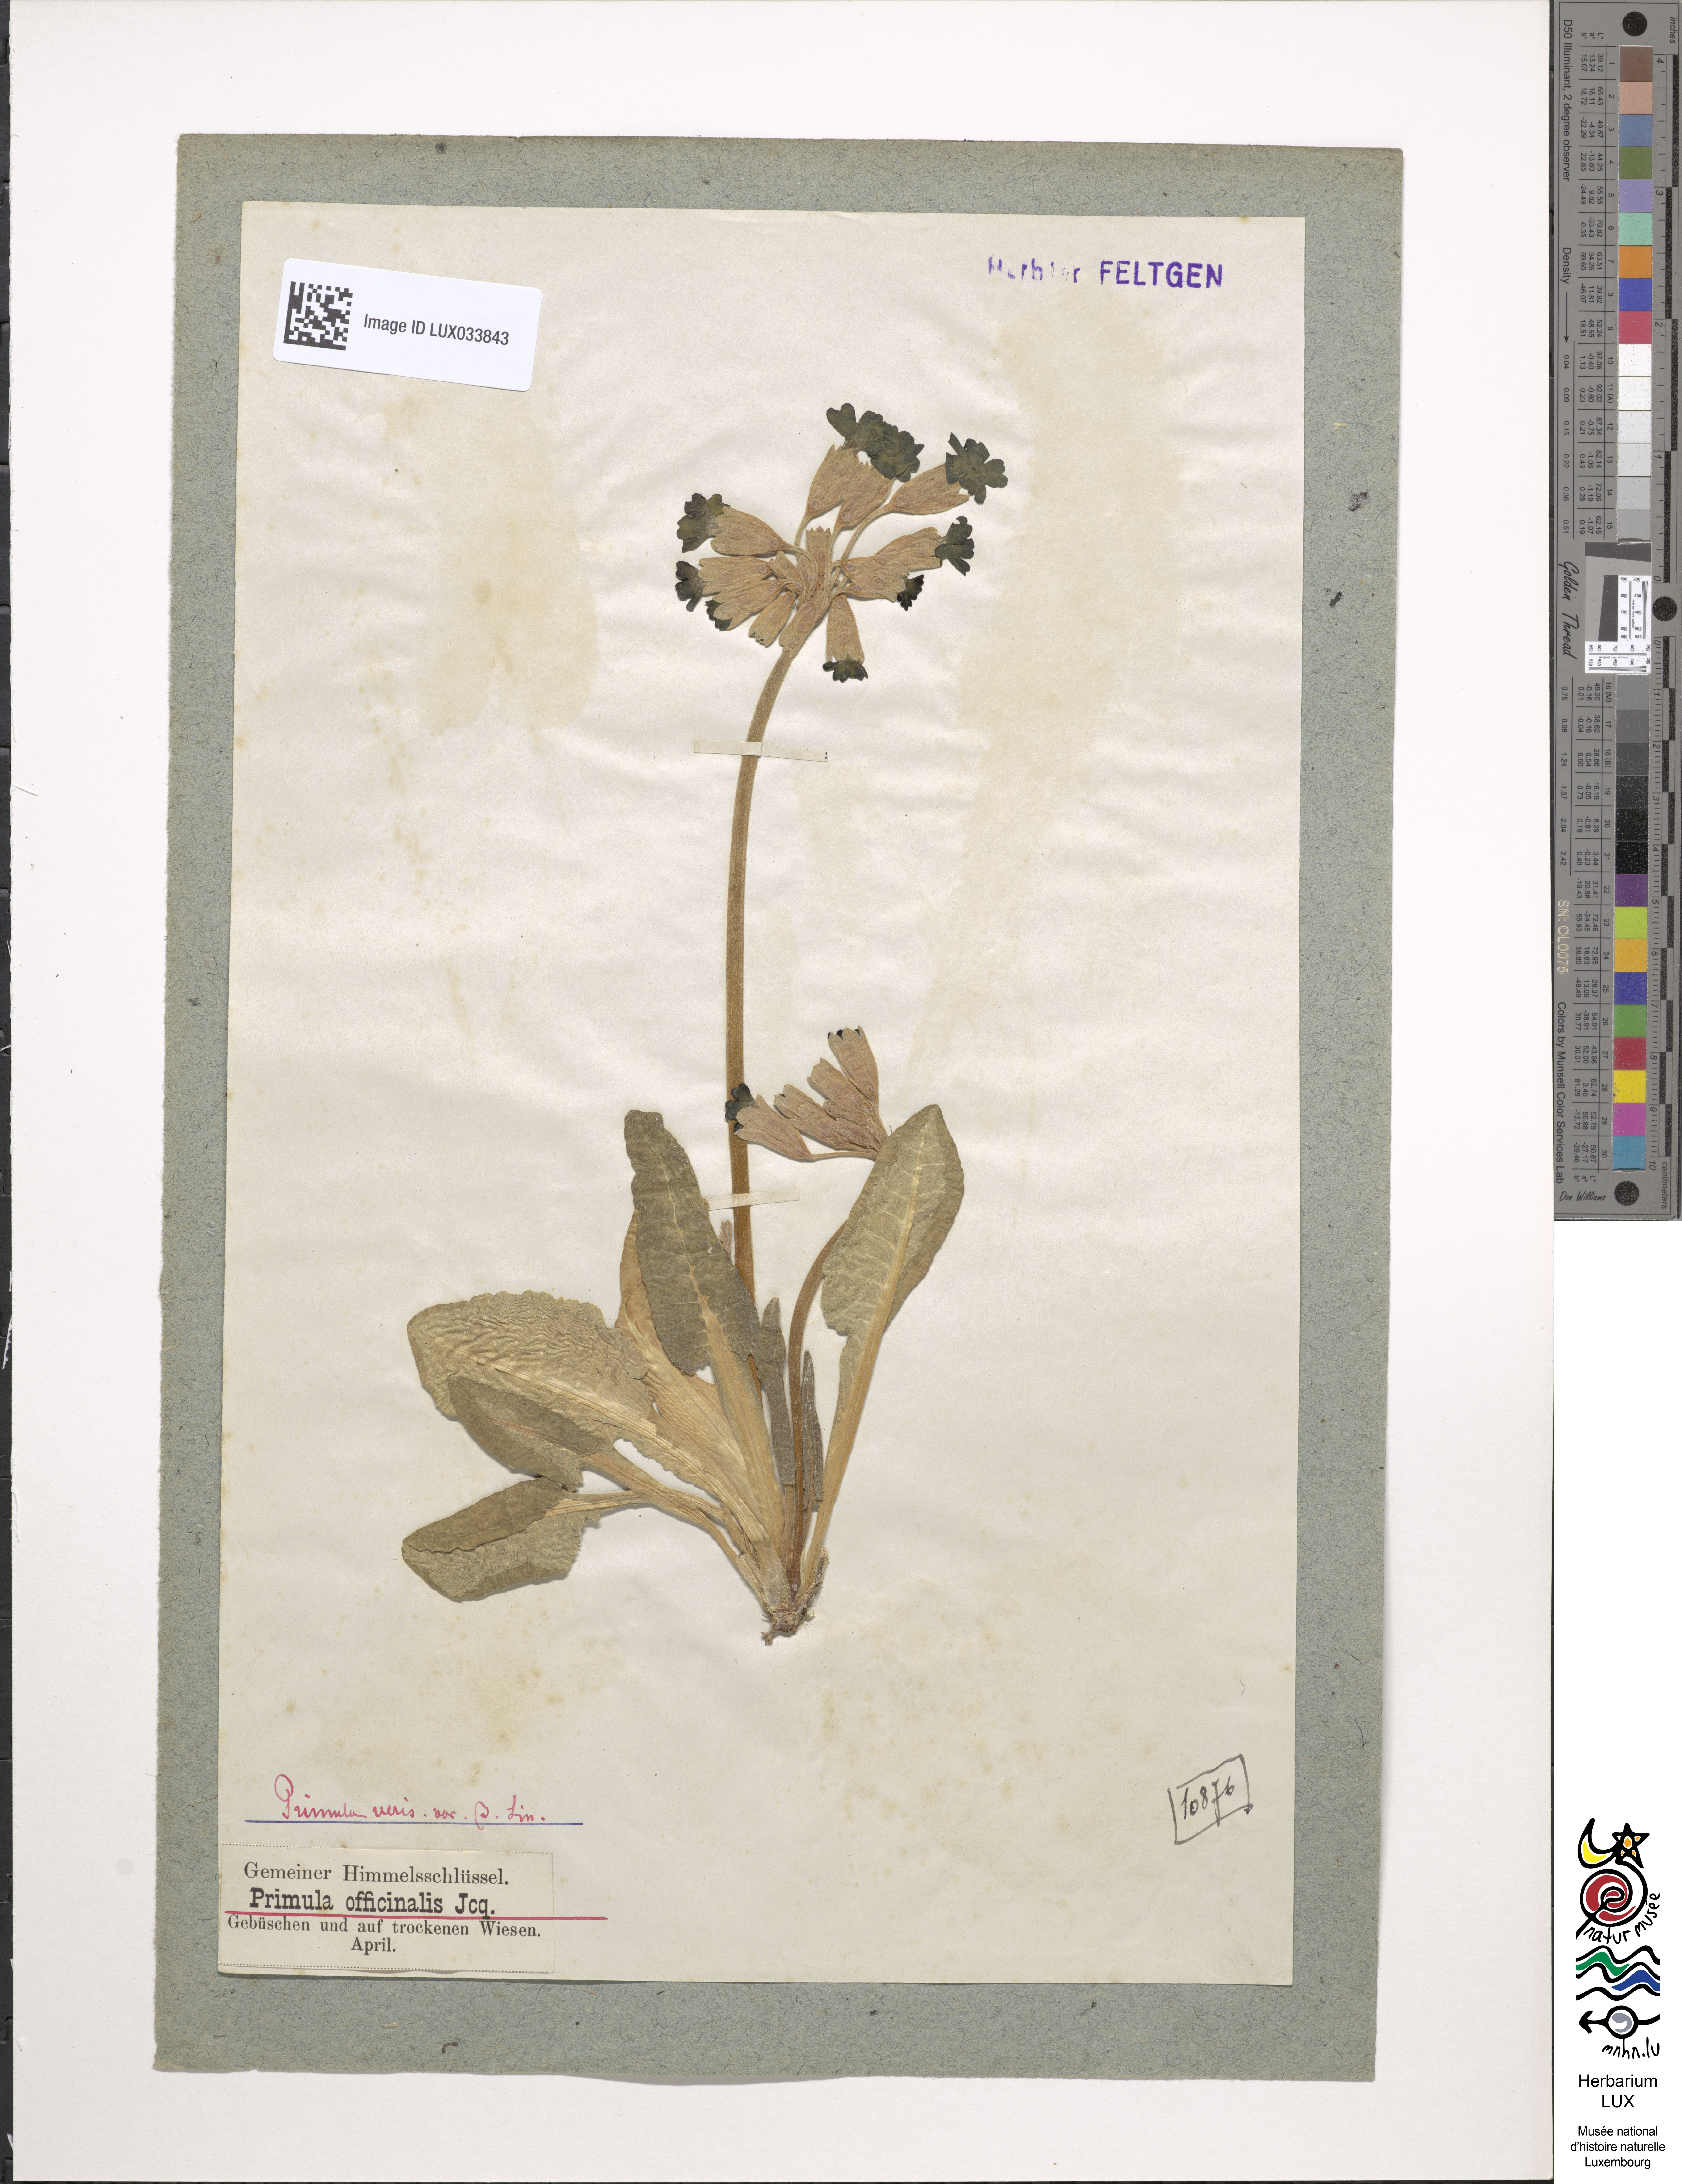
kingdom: Plantae
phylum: Tracheophyta
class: Magnoliopsida
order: Ericales
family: Primulaceae
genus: Primula
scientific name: Primula veris
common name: Cowslip
